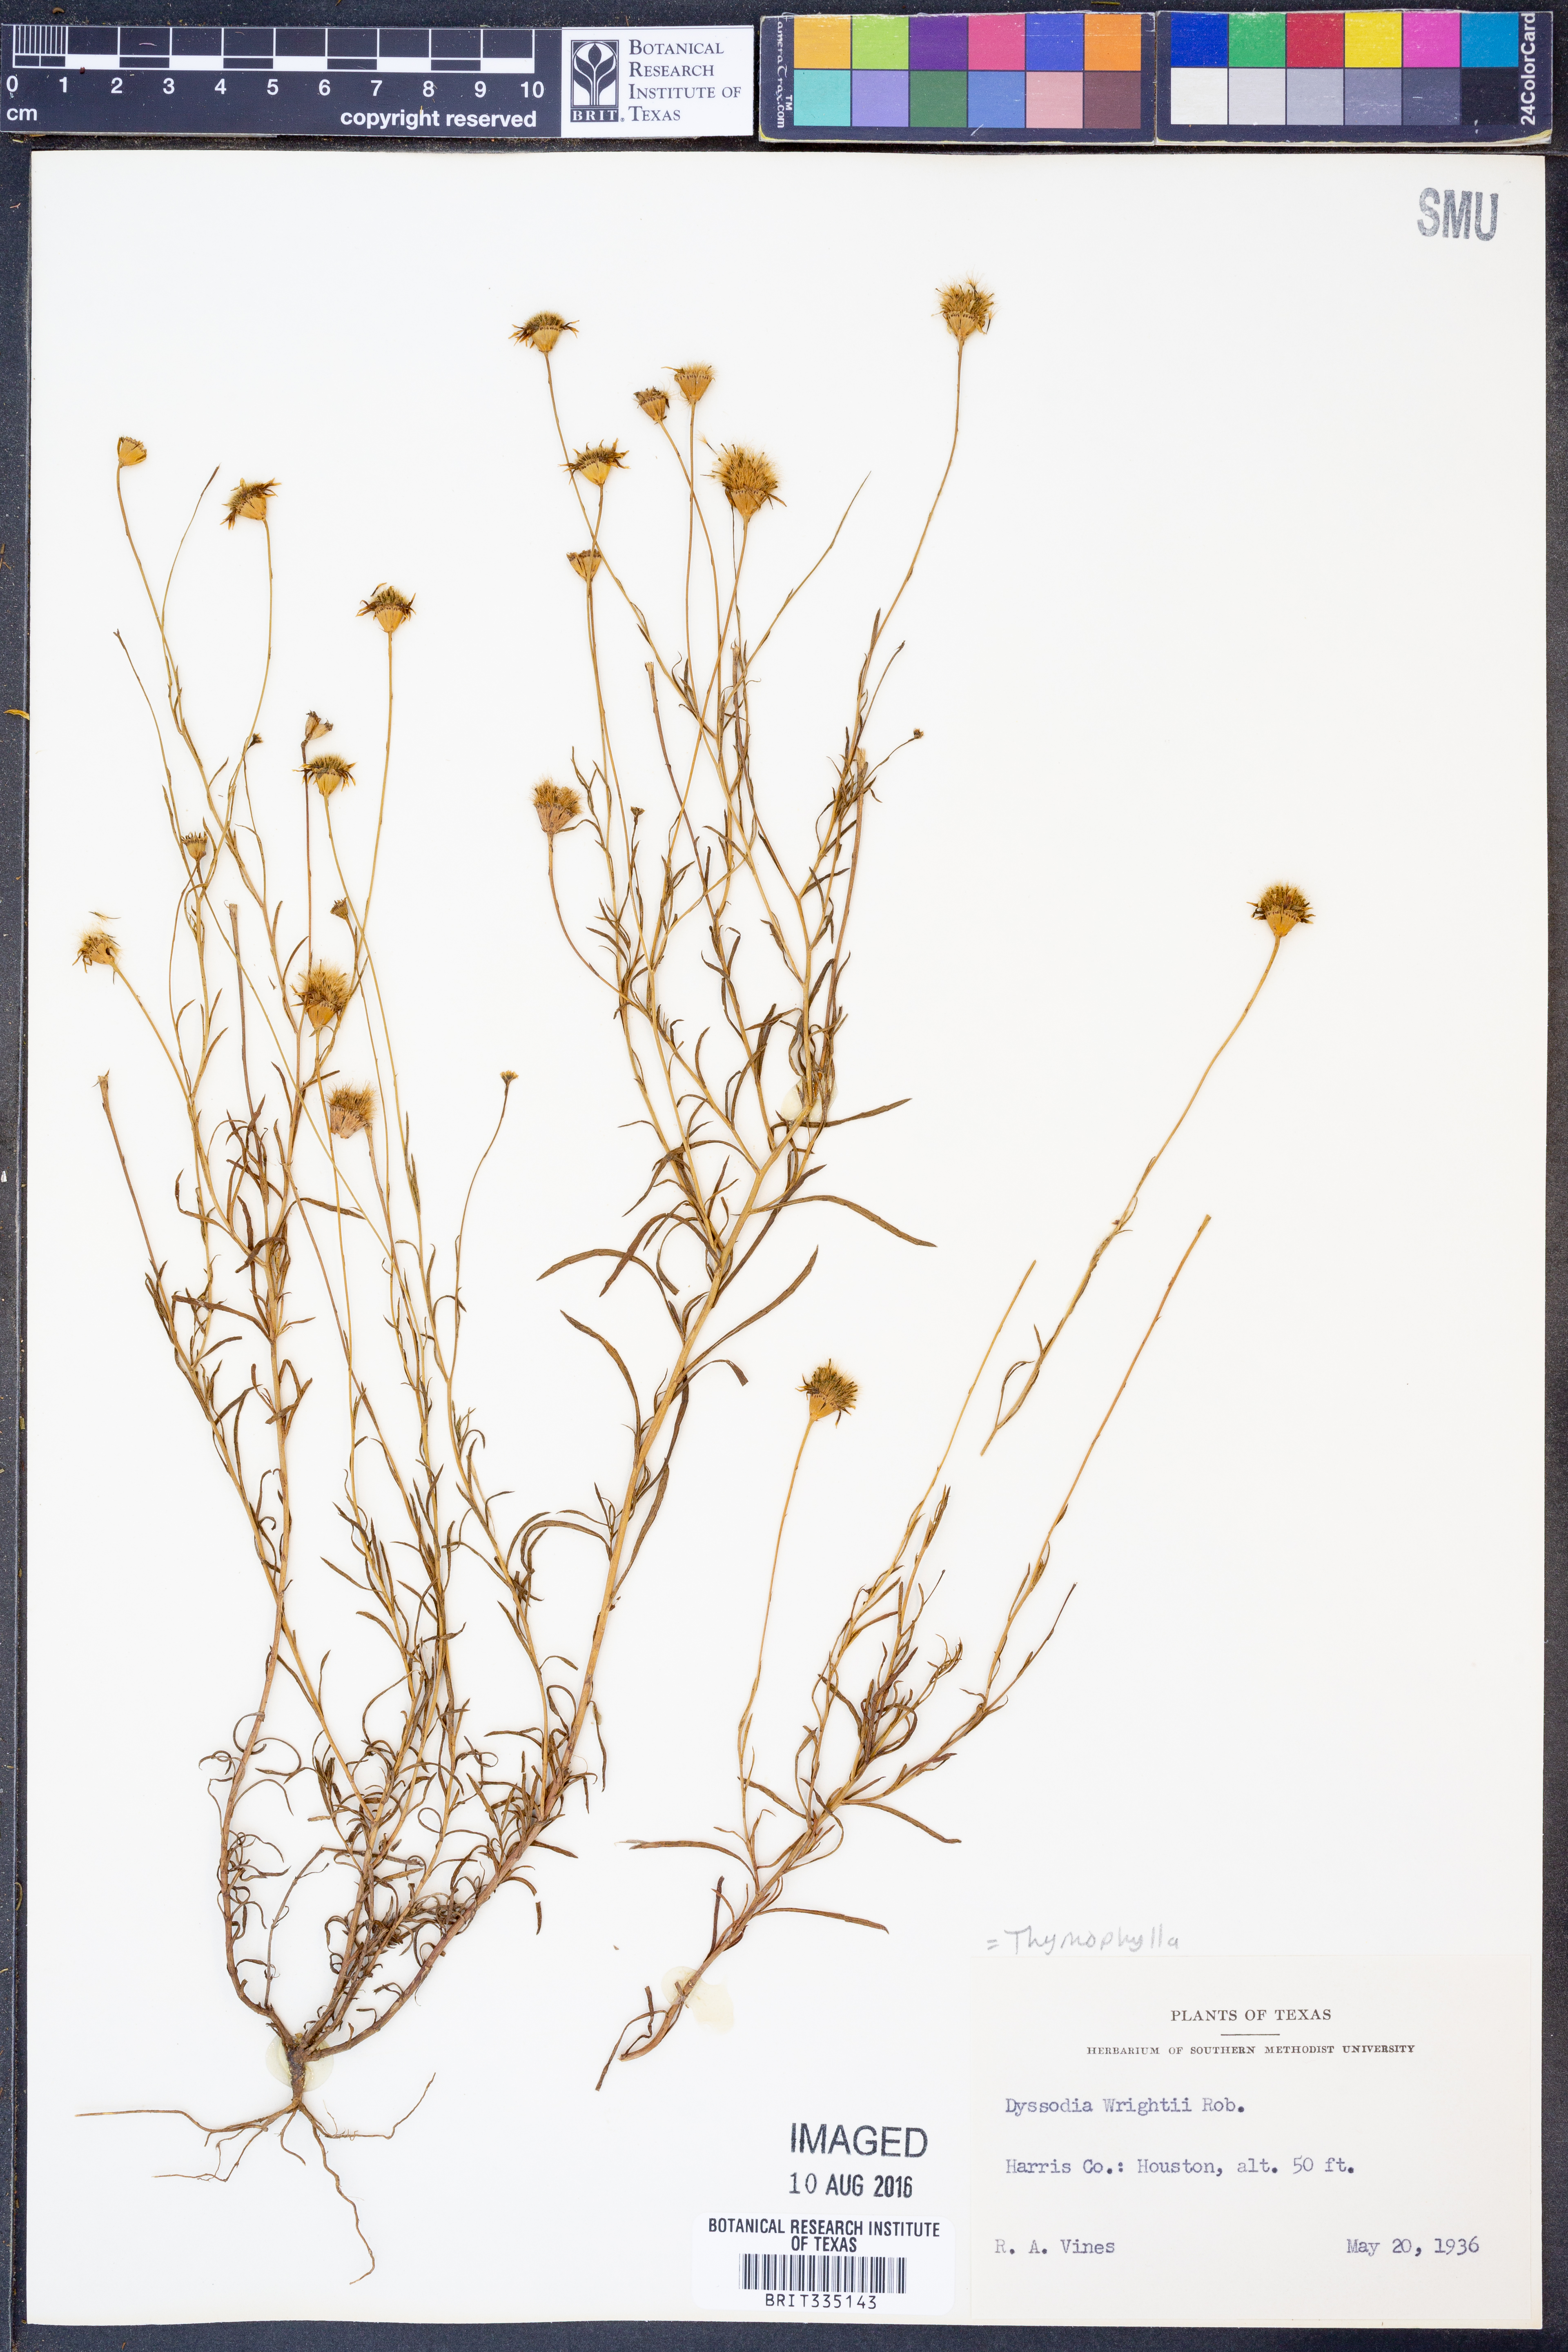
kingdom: Plantae
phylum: Tracheophyta
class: Magnoliopsida
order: Asterales
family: Asteraceae
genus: Thymophylla
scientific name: Thymophylla tenuiloba
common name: Dahlberg's daisy
